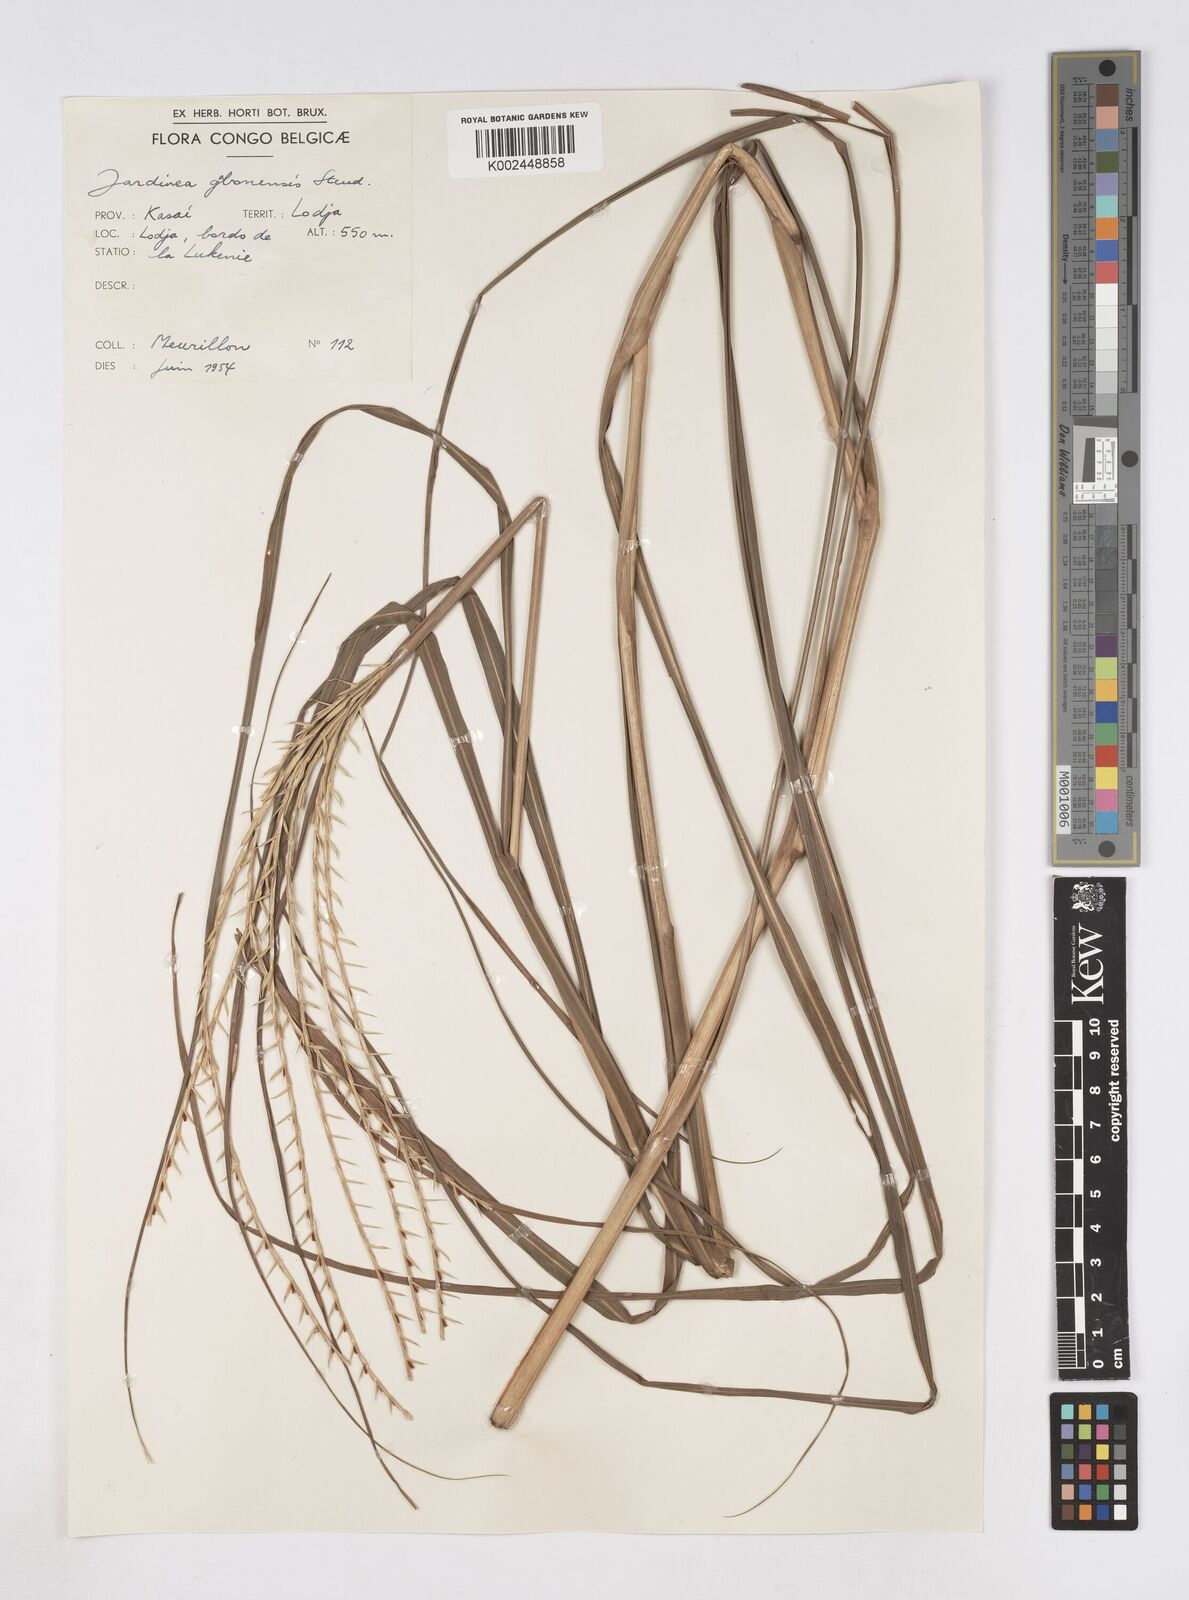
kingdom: Plantae
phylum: Tracheophyta
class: Liliopsida
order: Poales
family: Poaceae
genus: Phacelurus
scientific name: Phacelurus gabonensis
